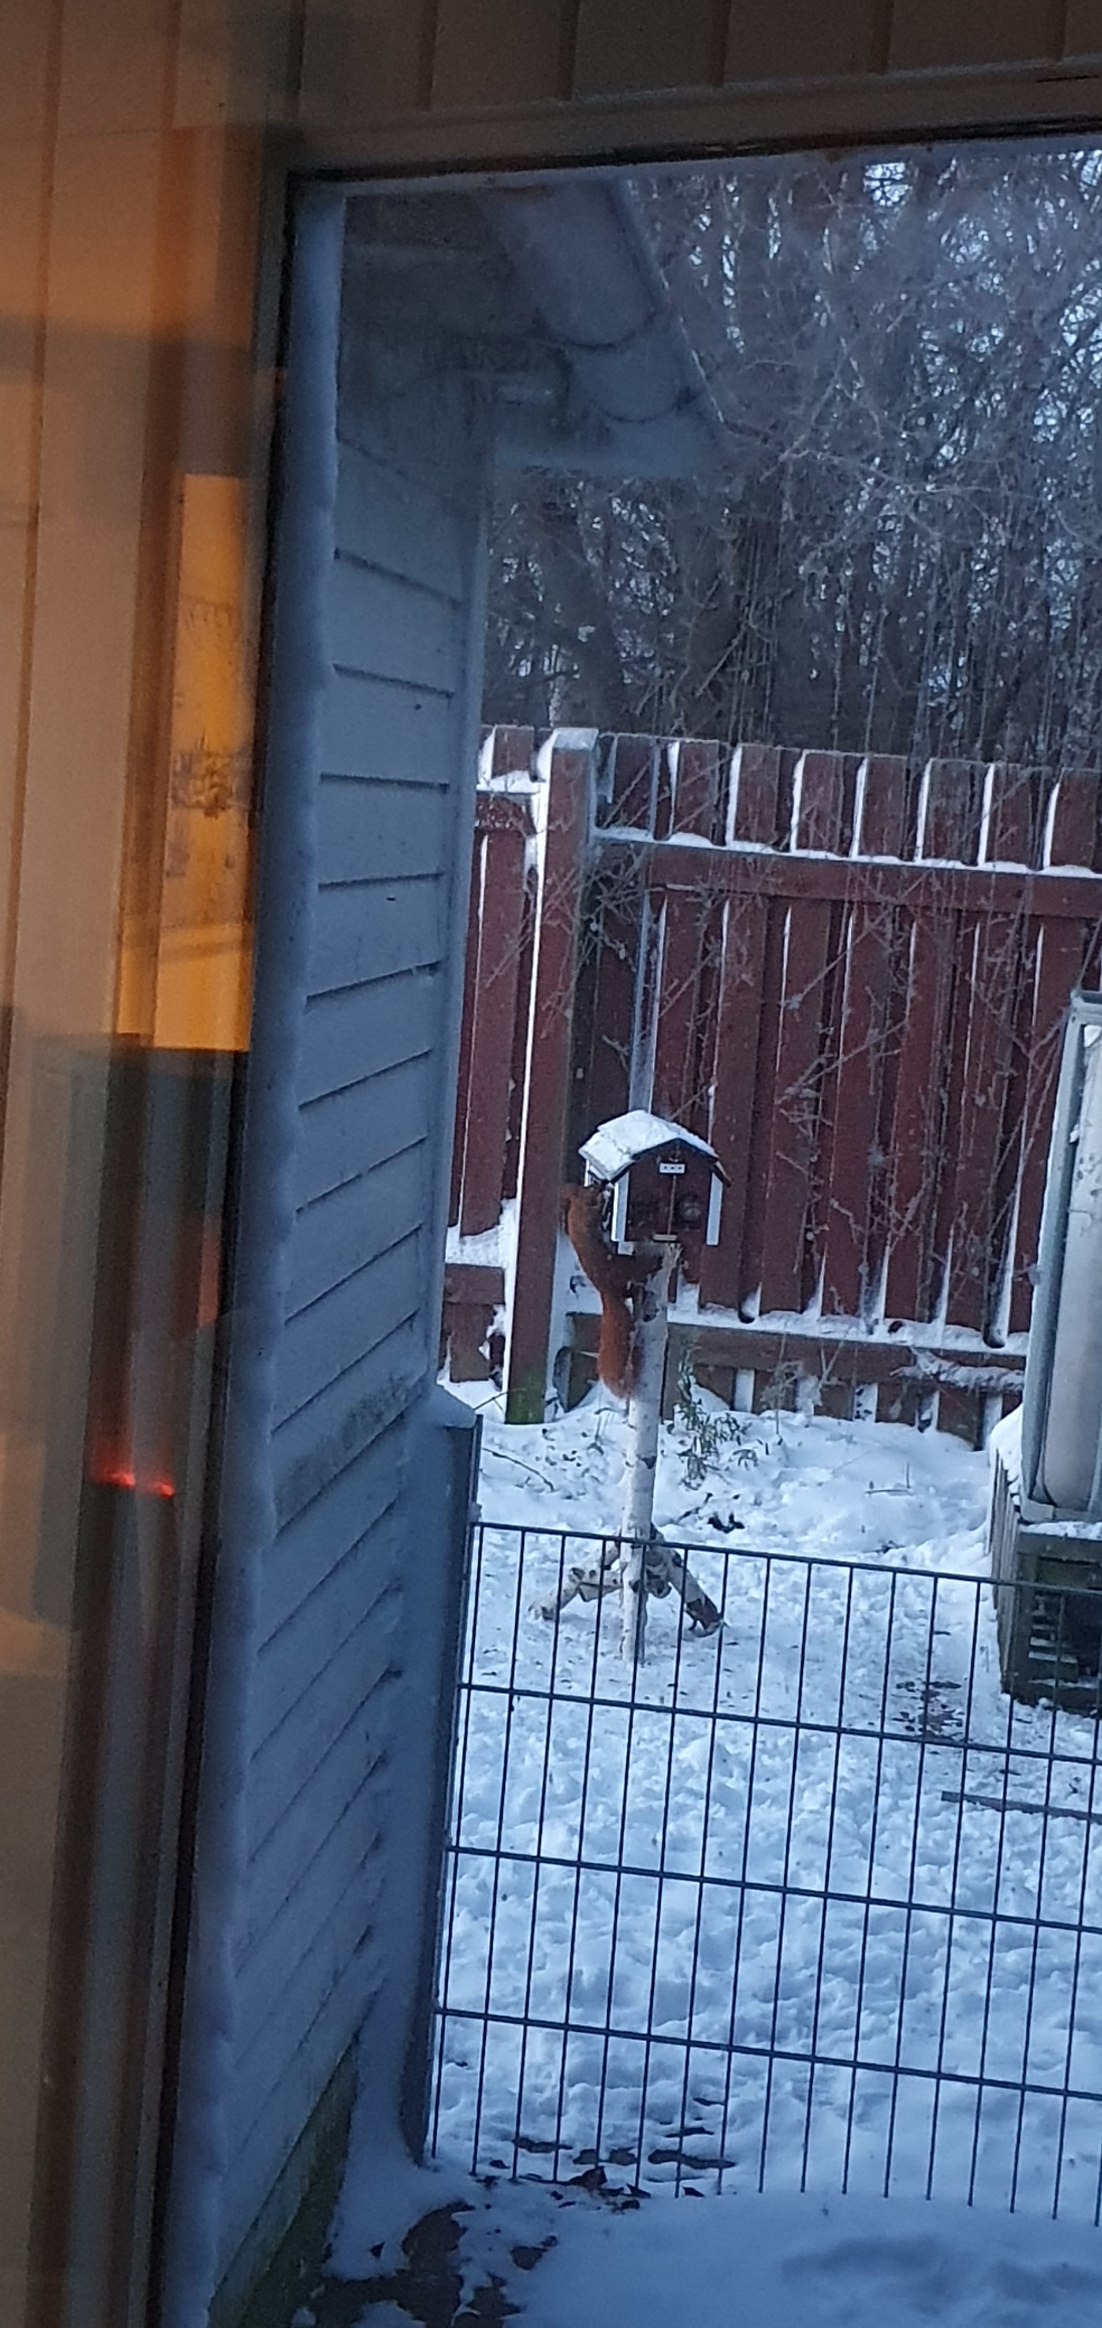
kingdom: Animalia
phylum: Chordata
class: Mammalia
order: Rodentia
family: Sciuridae
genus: Sciurus
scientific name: Sciurus vulgaris
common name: Egern
